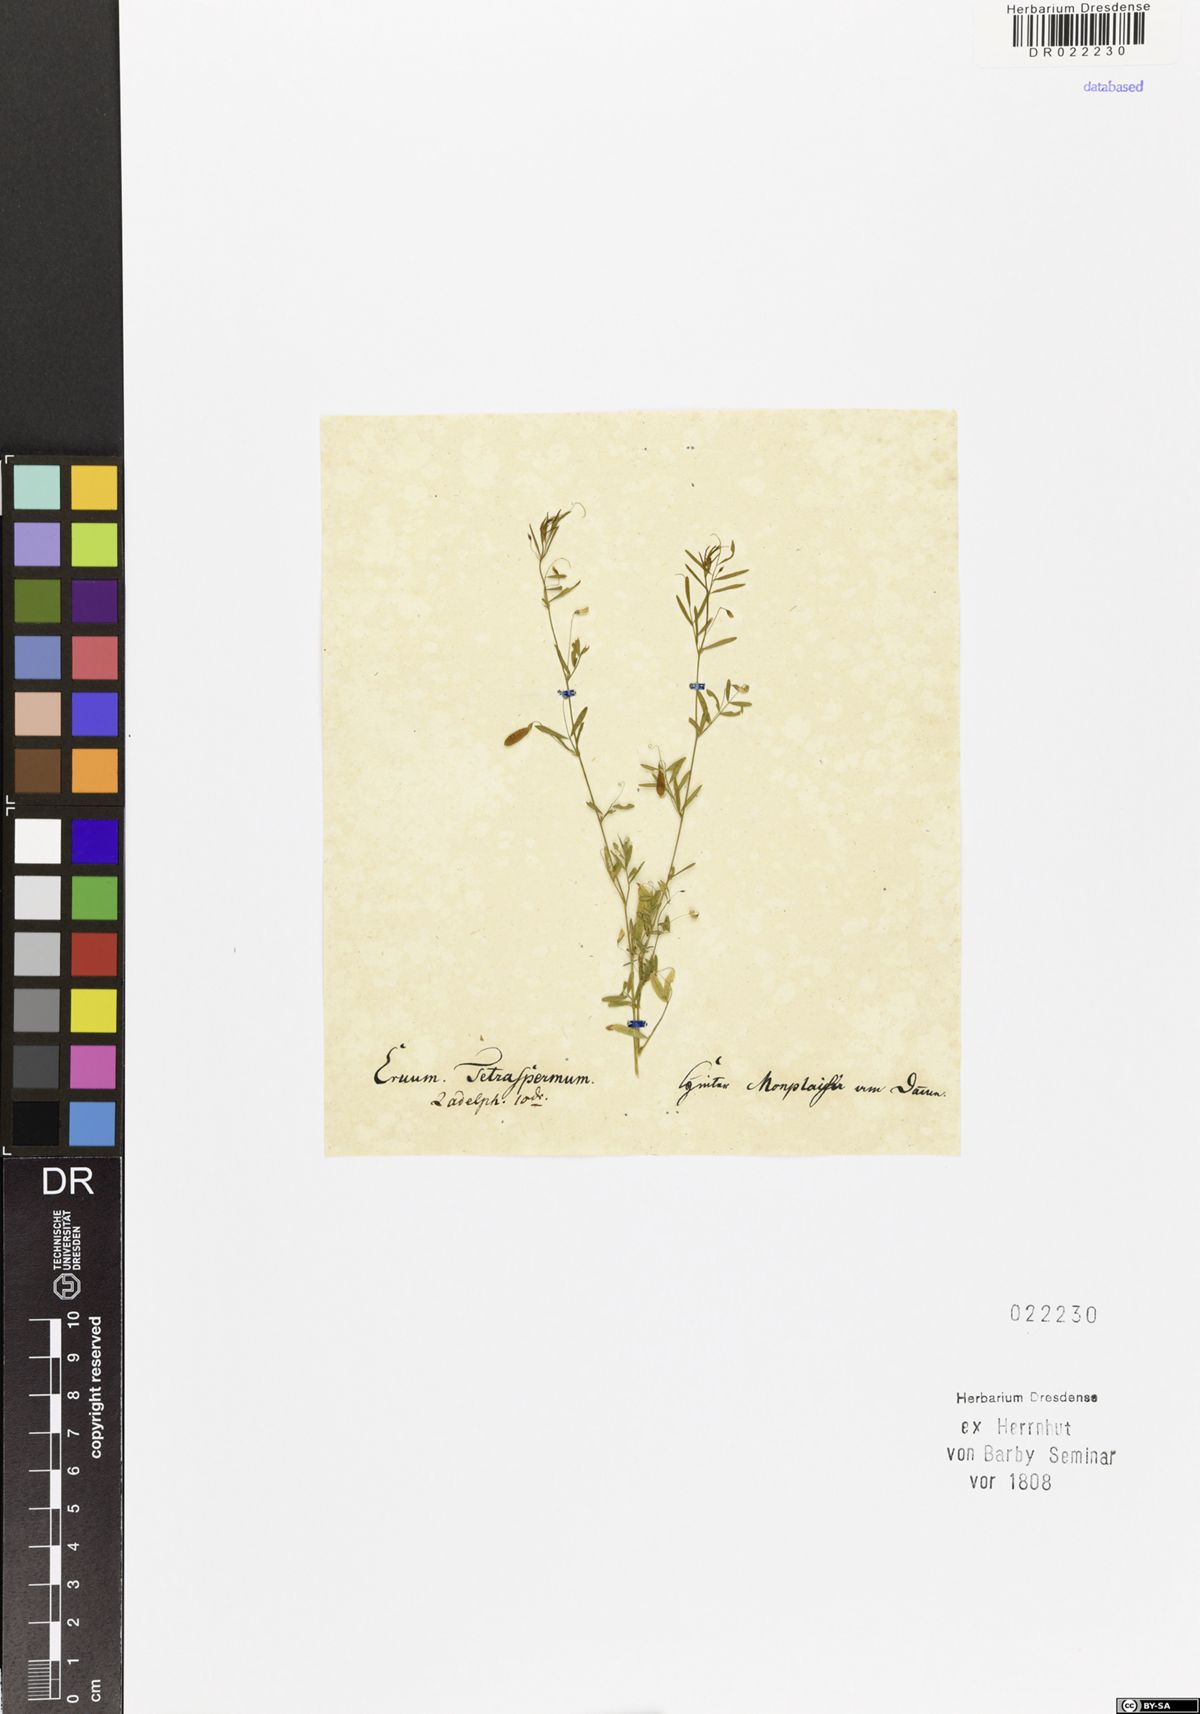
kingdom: Plantae
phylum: Tracheophyta
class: Magnoliopsida
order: Fabales
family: Fabaceae
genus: Vicia
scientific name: Vicia tetrasperma
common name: Smooth tare
